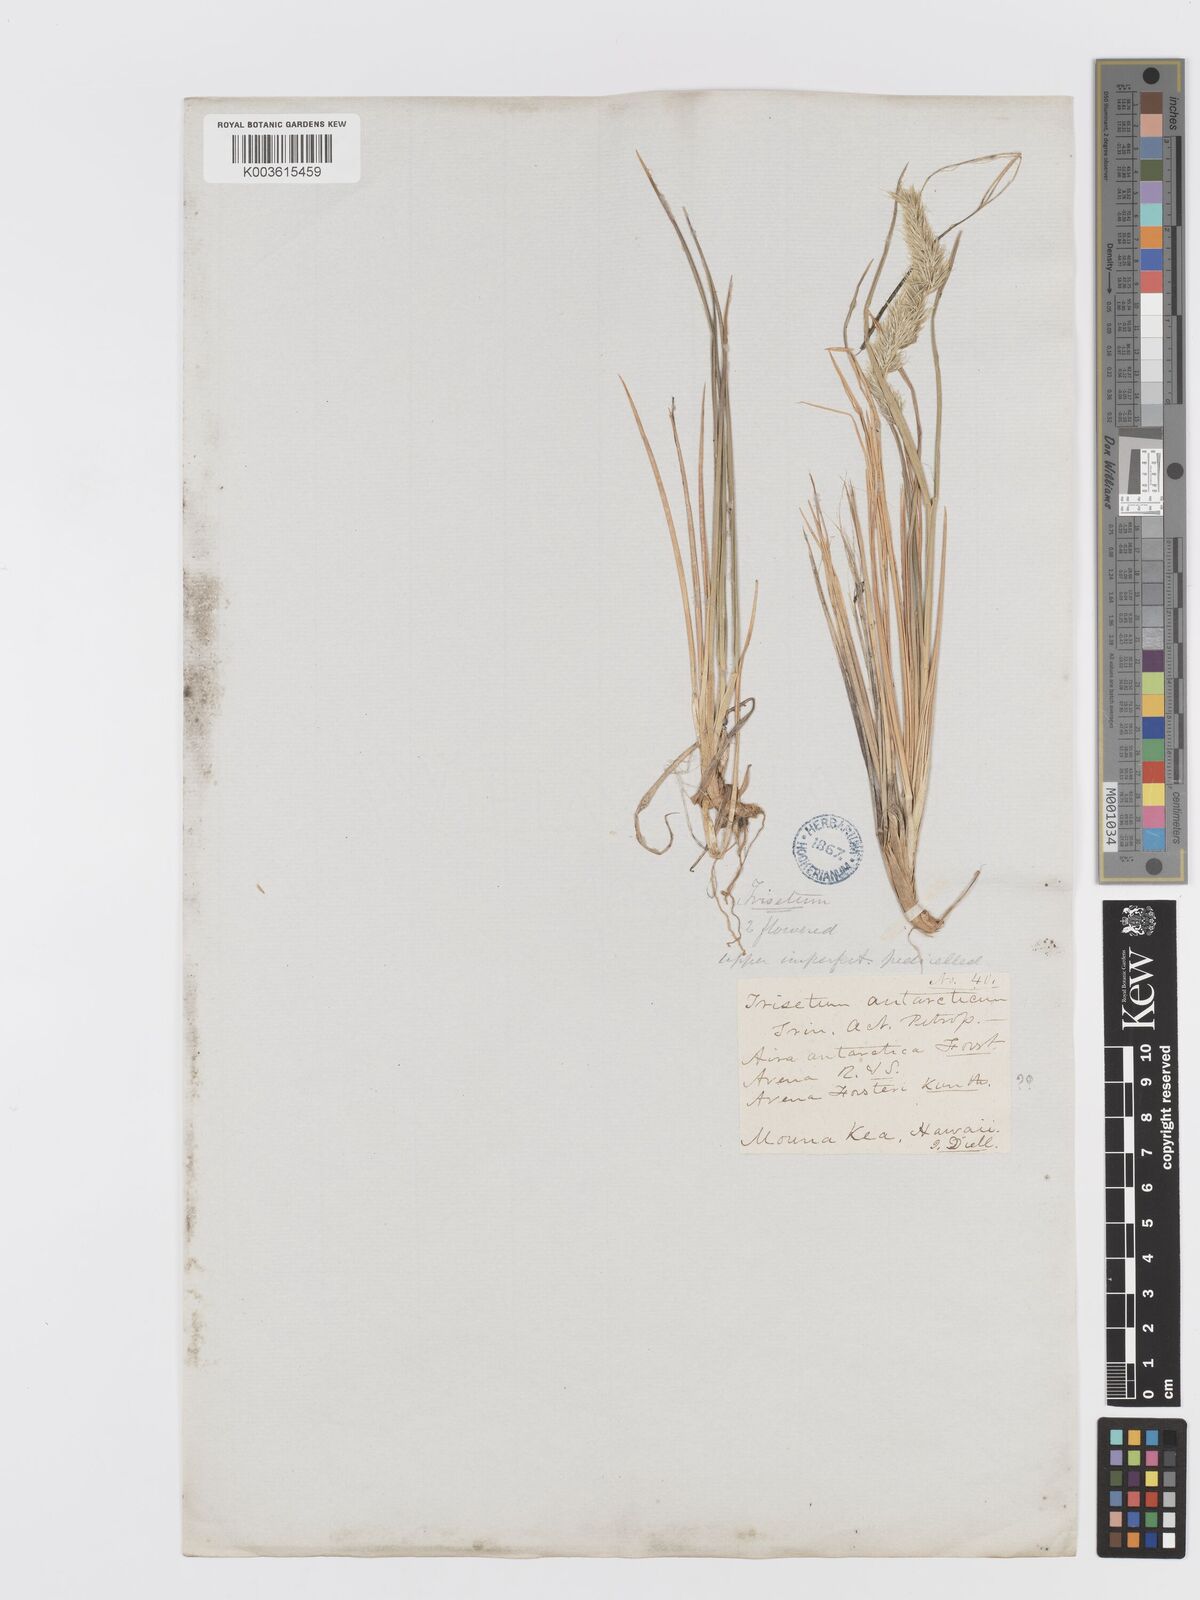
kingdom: Plantae
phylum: Tracheophyta
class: Liliopsida
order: Poales
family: Poaceae
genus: Trisetum
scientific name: Trisetum glomeratum
